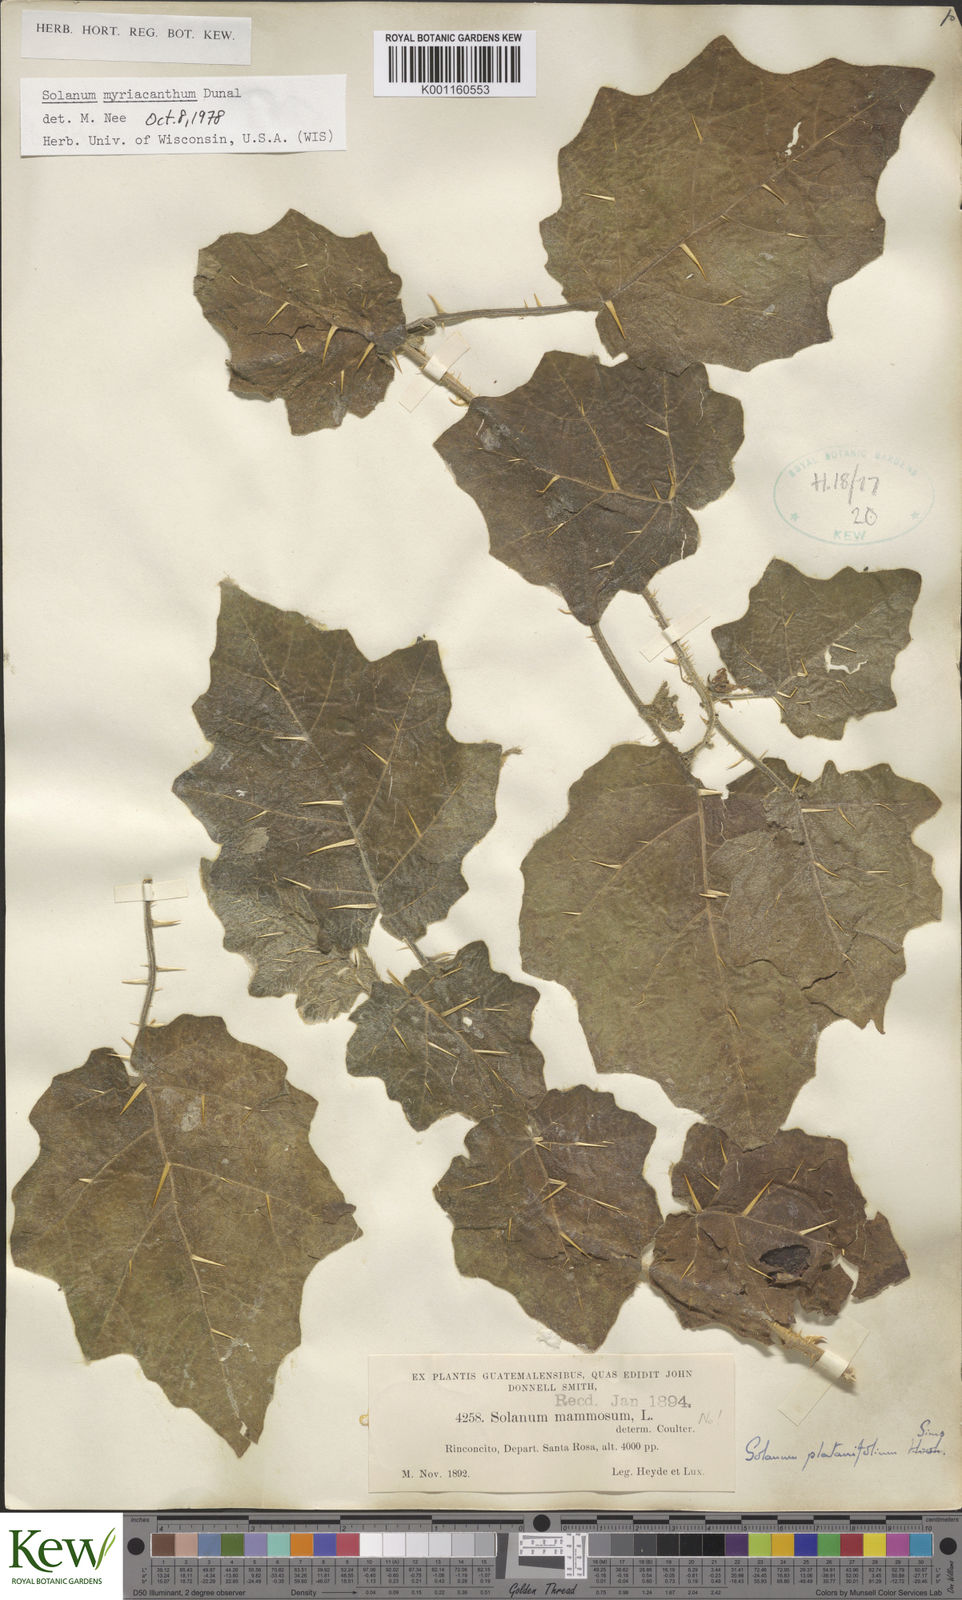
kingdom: Plantae
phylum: Tracheophyta
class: Magnoliopsida
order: Solanales
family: Solanaceae
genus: Solanum
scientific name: Solanum myriacanthum
